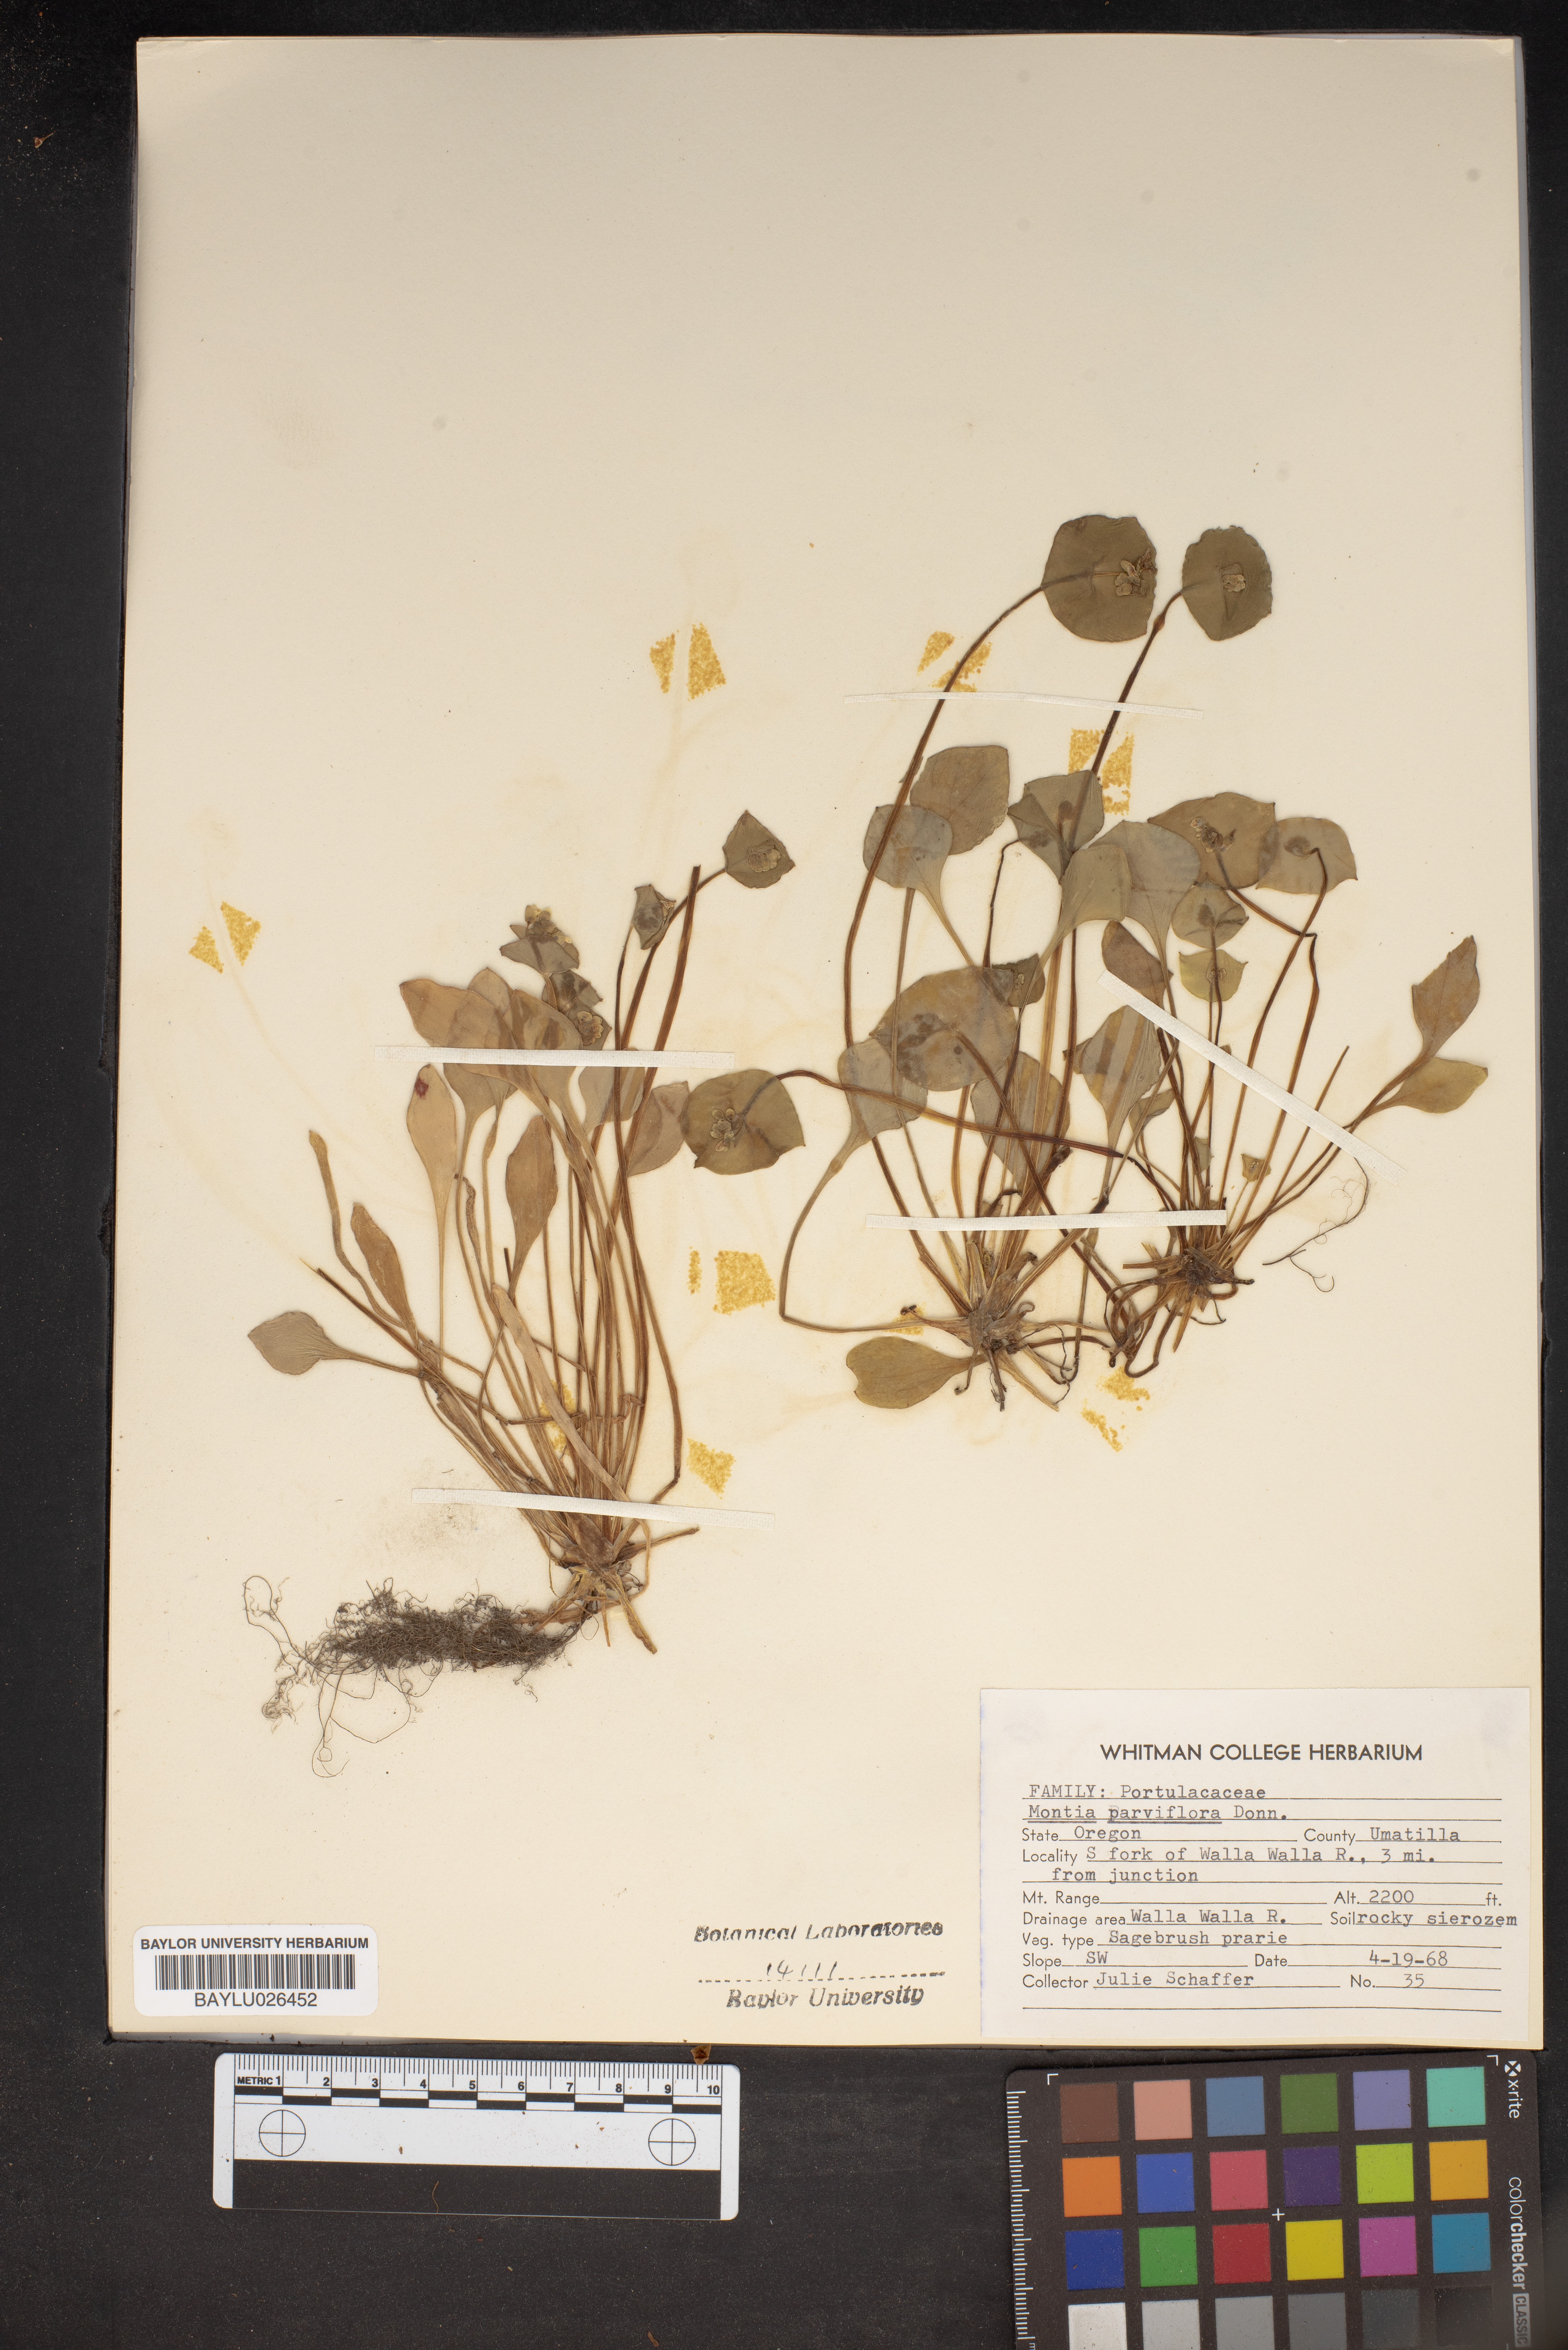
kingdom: Plantae
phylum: Tracheophyta
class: Magnoliopsida
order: Caryophyllales
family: Montiaceae
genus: Claytonia
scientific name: Claytonia parviflora
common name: Indian-lettuce
